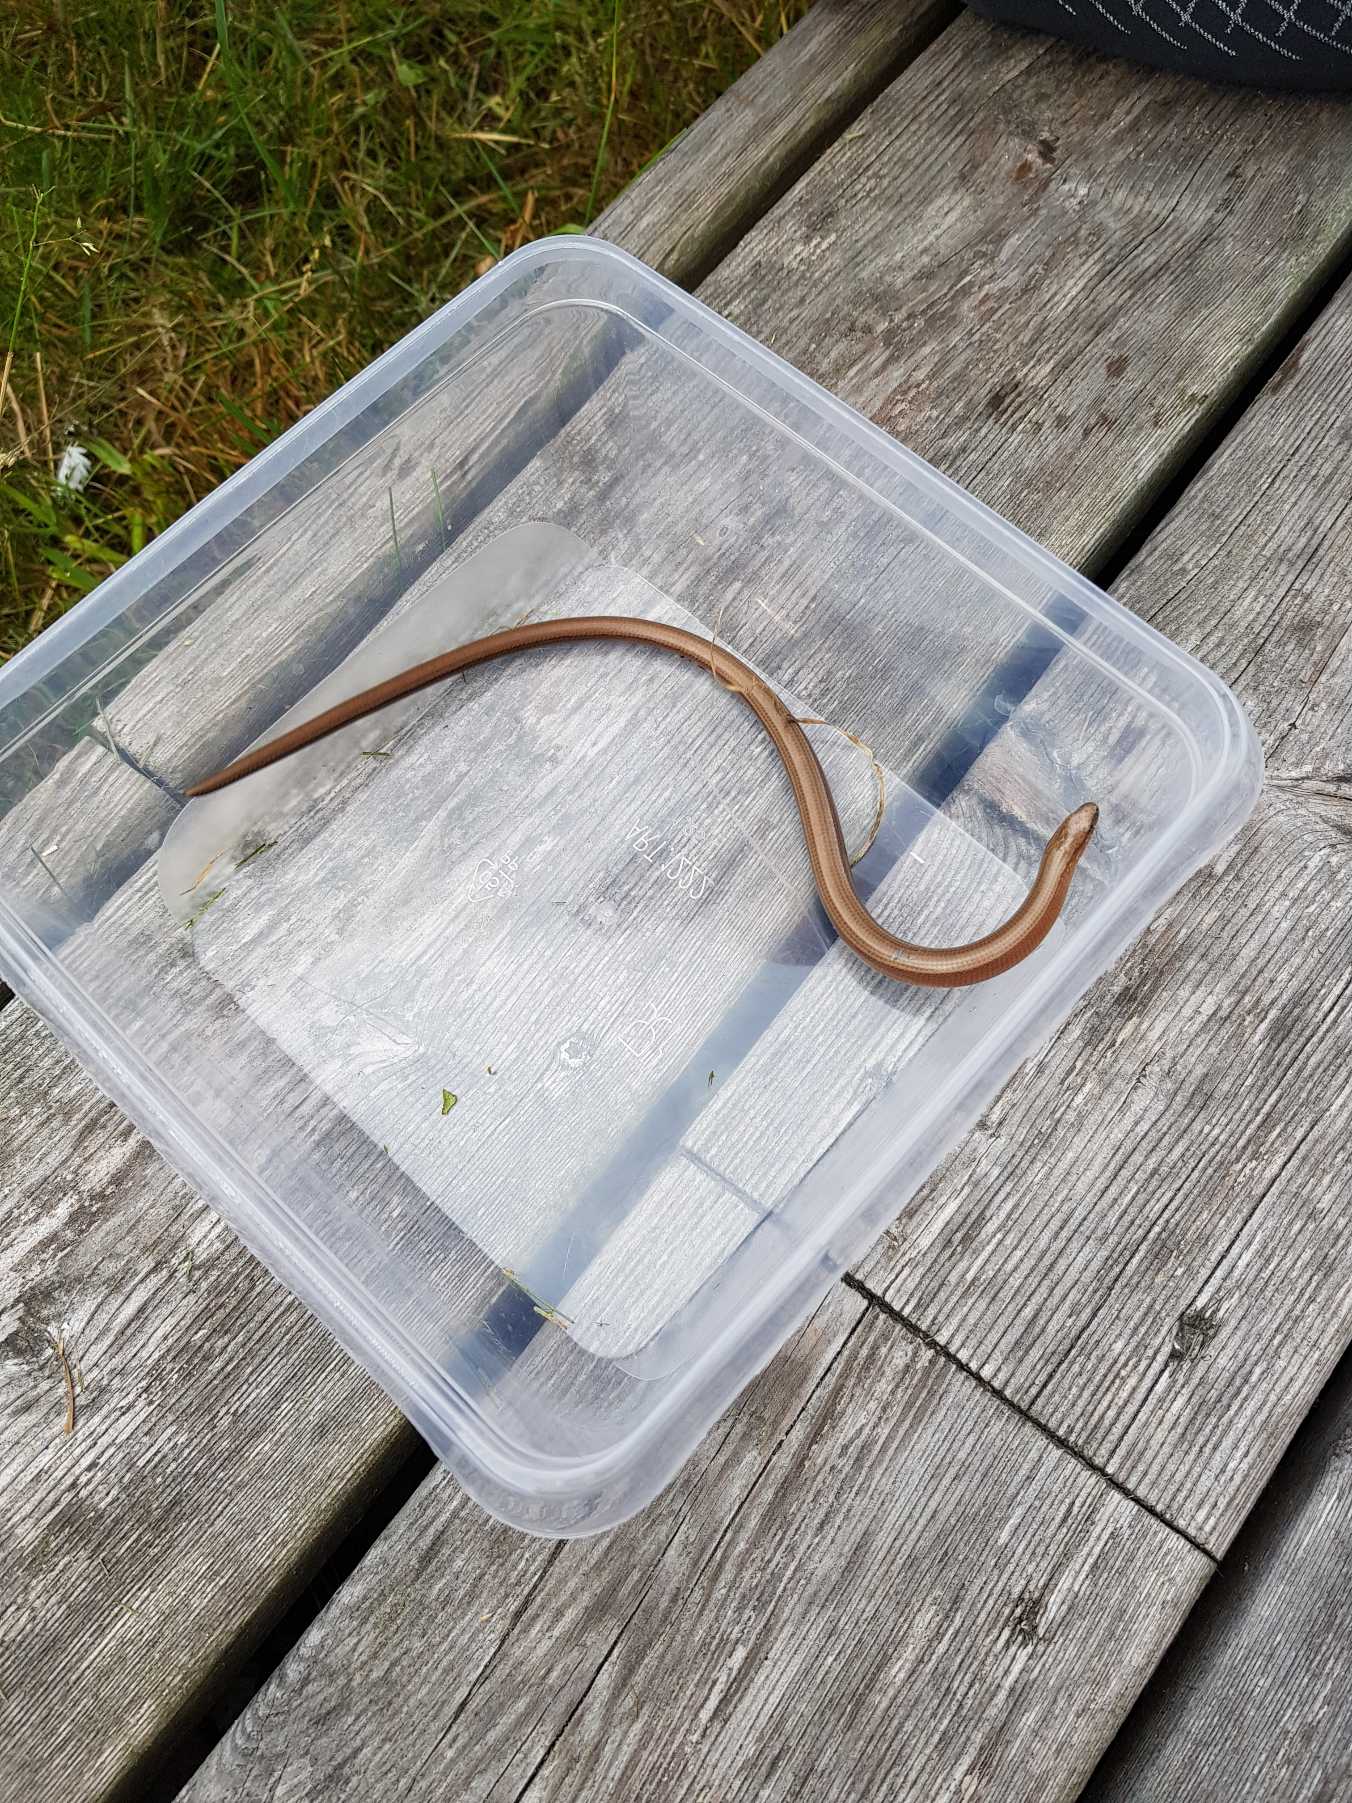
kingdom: Animalia
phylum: Chordata
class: Squamata
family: Anguidae
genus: Anguis
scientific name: Anguis fragilis
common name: Stålorm
